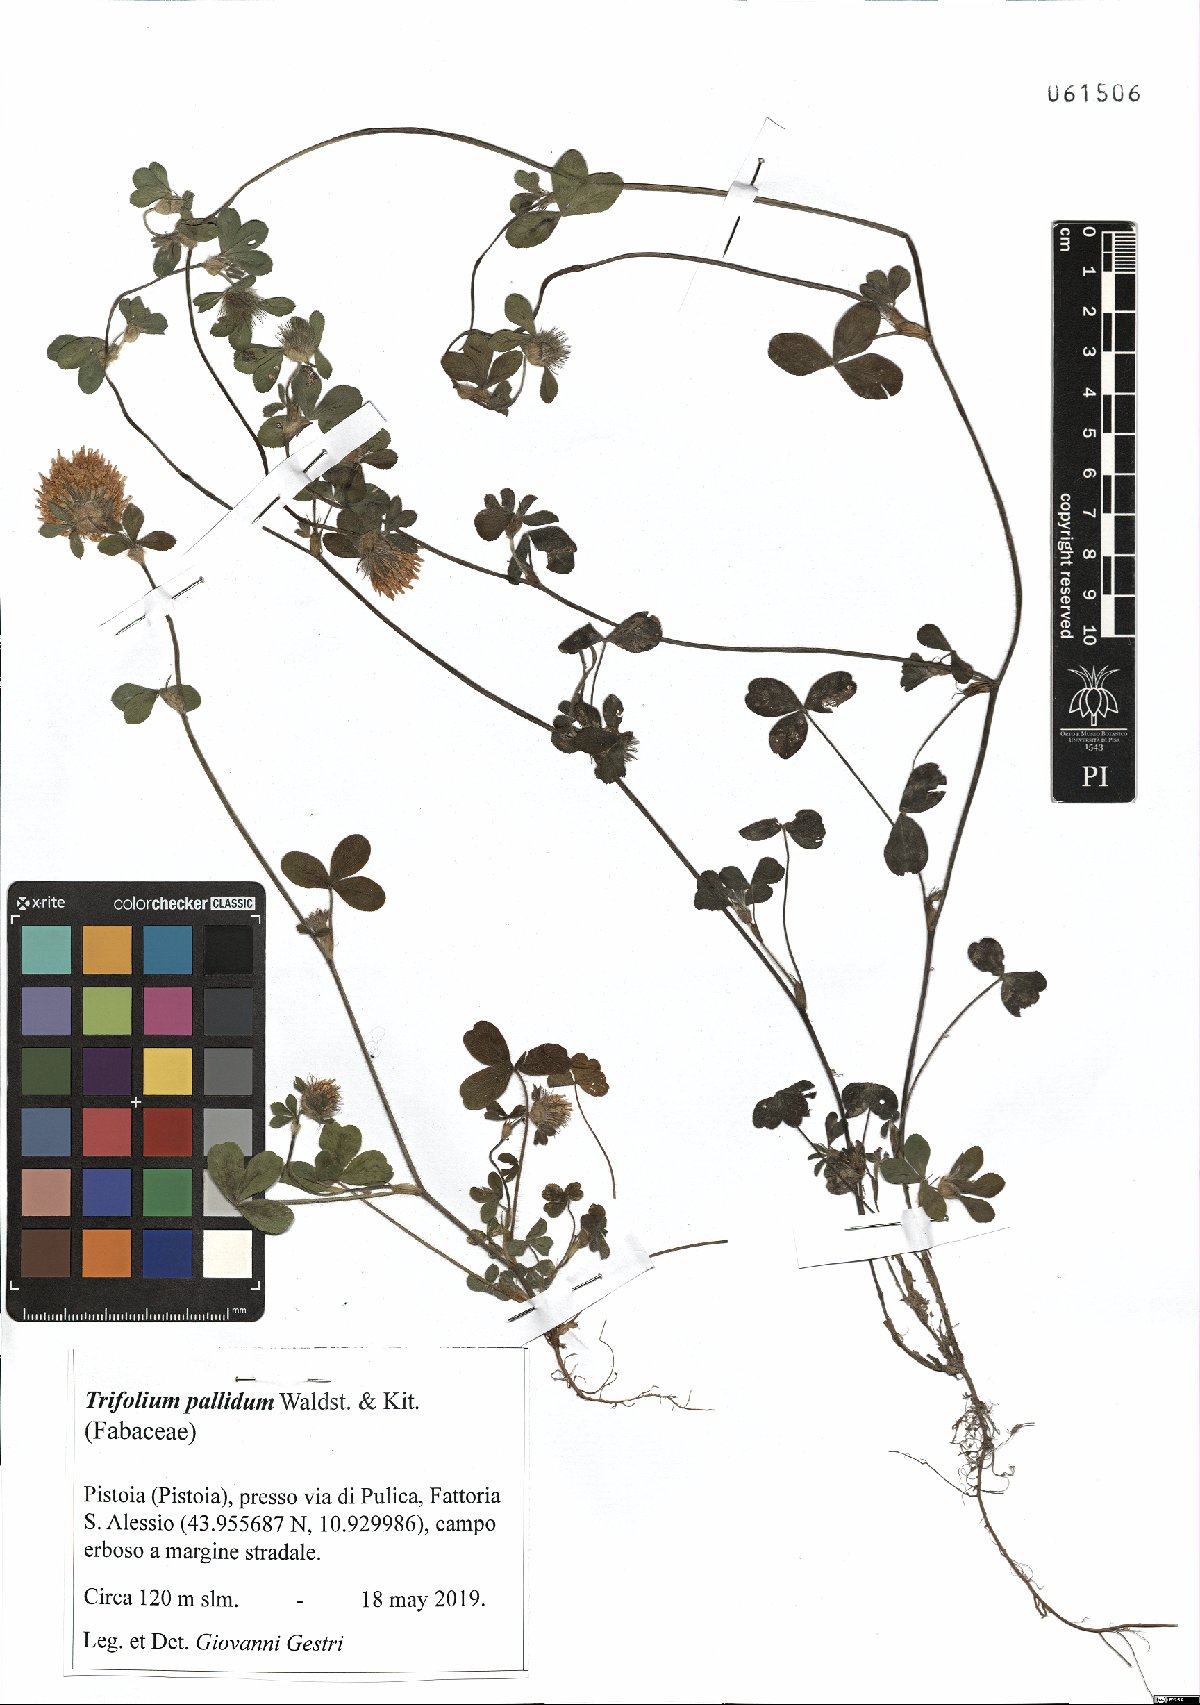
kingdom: Plantae
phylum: Tracheophyta
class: Magnoliopsida
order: Fabales
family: Fabaceae
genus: Trifolium
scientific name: Trifolium pallidum
